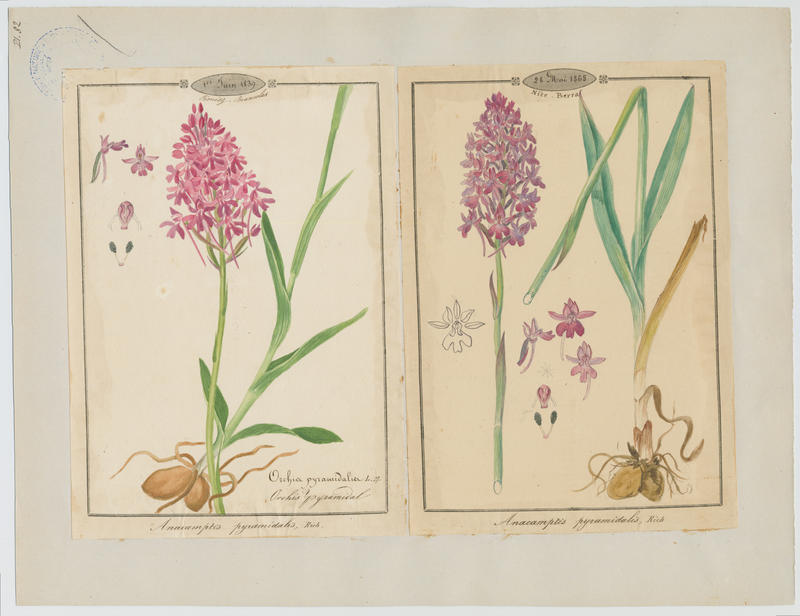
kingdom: Plantae
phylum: Tracheophyta
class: Liliopsida
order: Asparagales
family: Orchidaceae
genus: Anacamptis
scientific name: Anacamptis pyramidalis
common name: Pyramidal orchid
